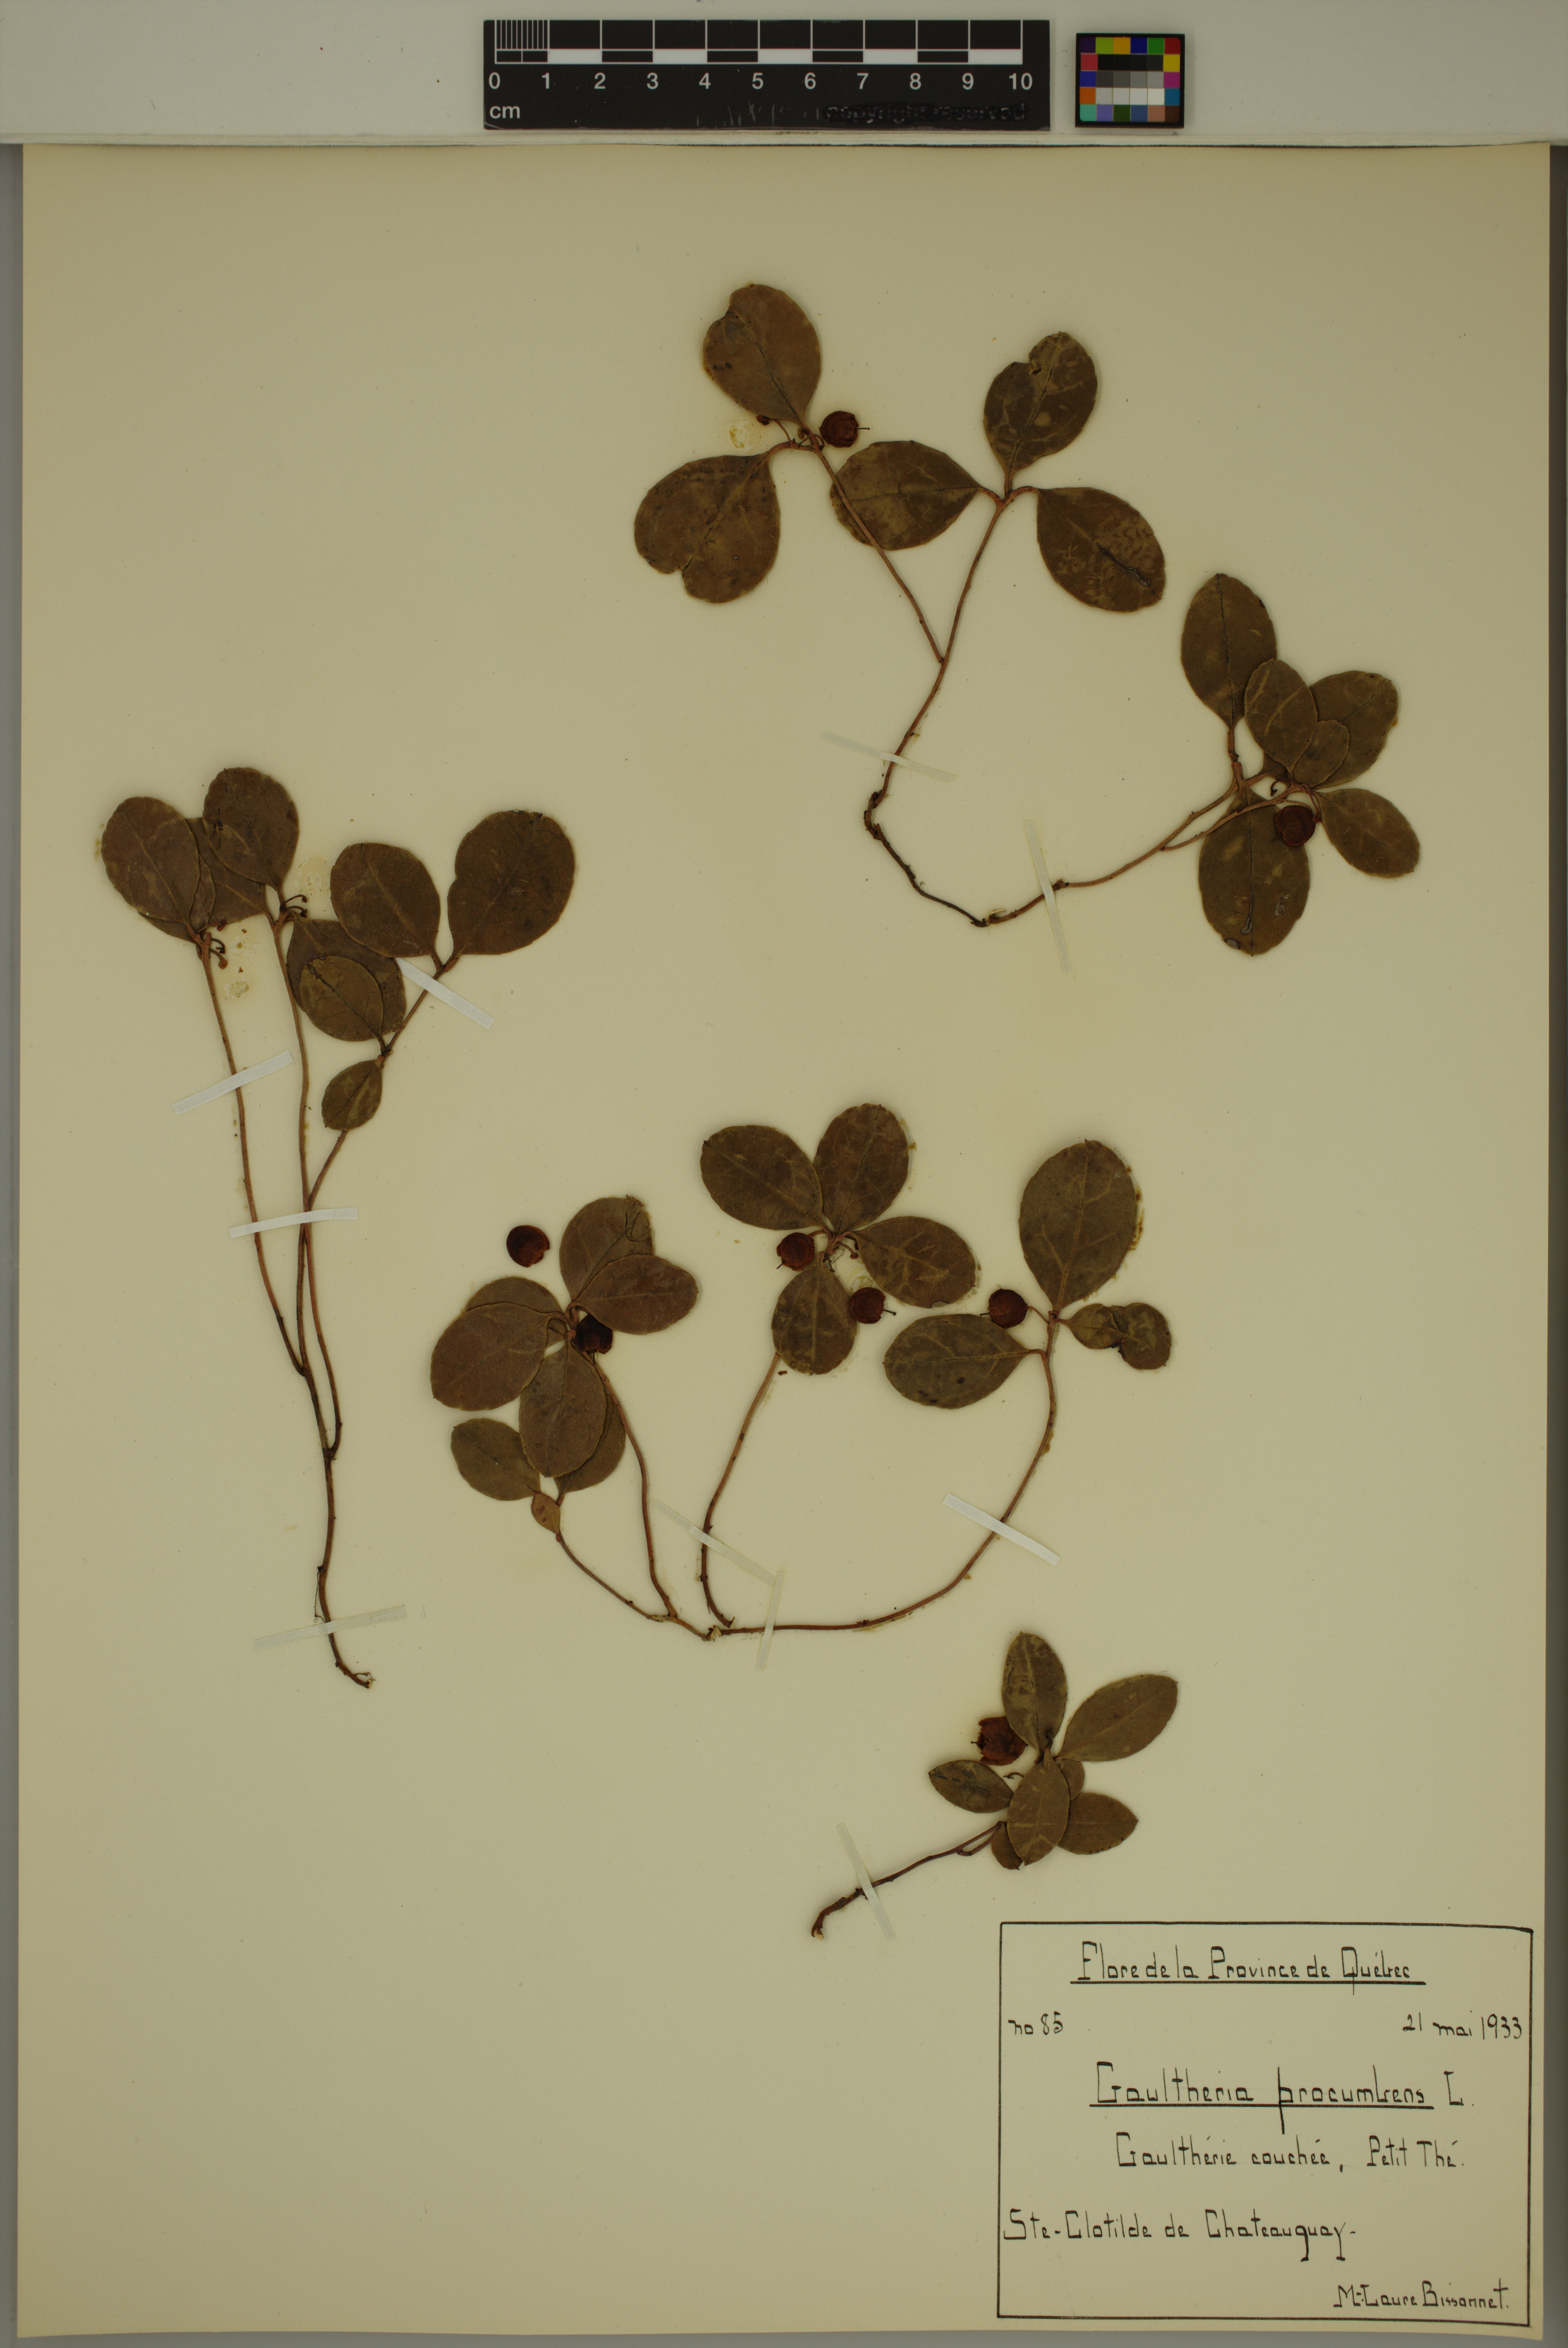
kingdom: Plantae
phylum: Tracheophyta
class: Magnoliopsida
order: Ericales
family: Ericaceae
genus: Gaultheria
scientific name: Gaultheria procumbens
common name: Checkerberry
